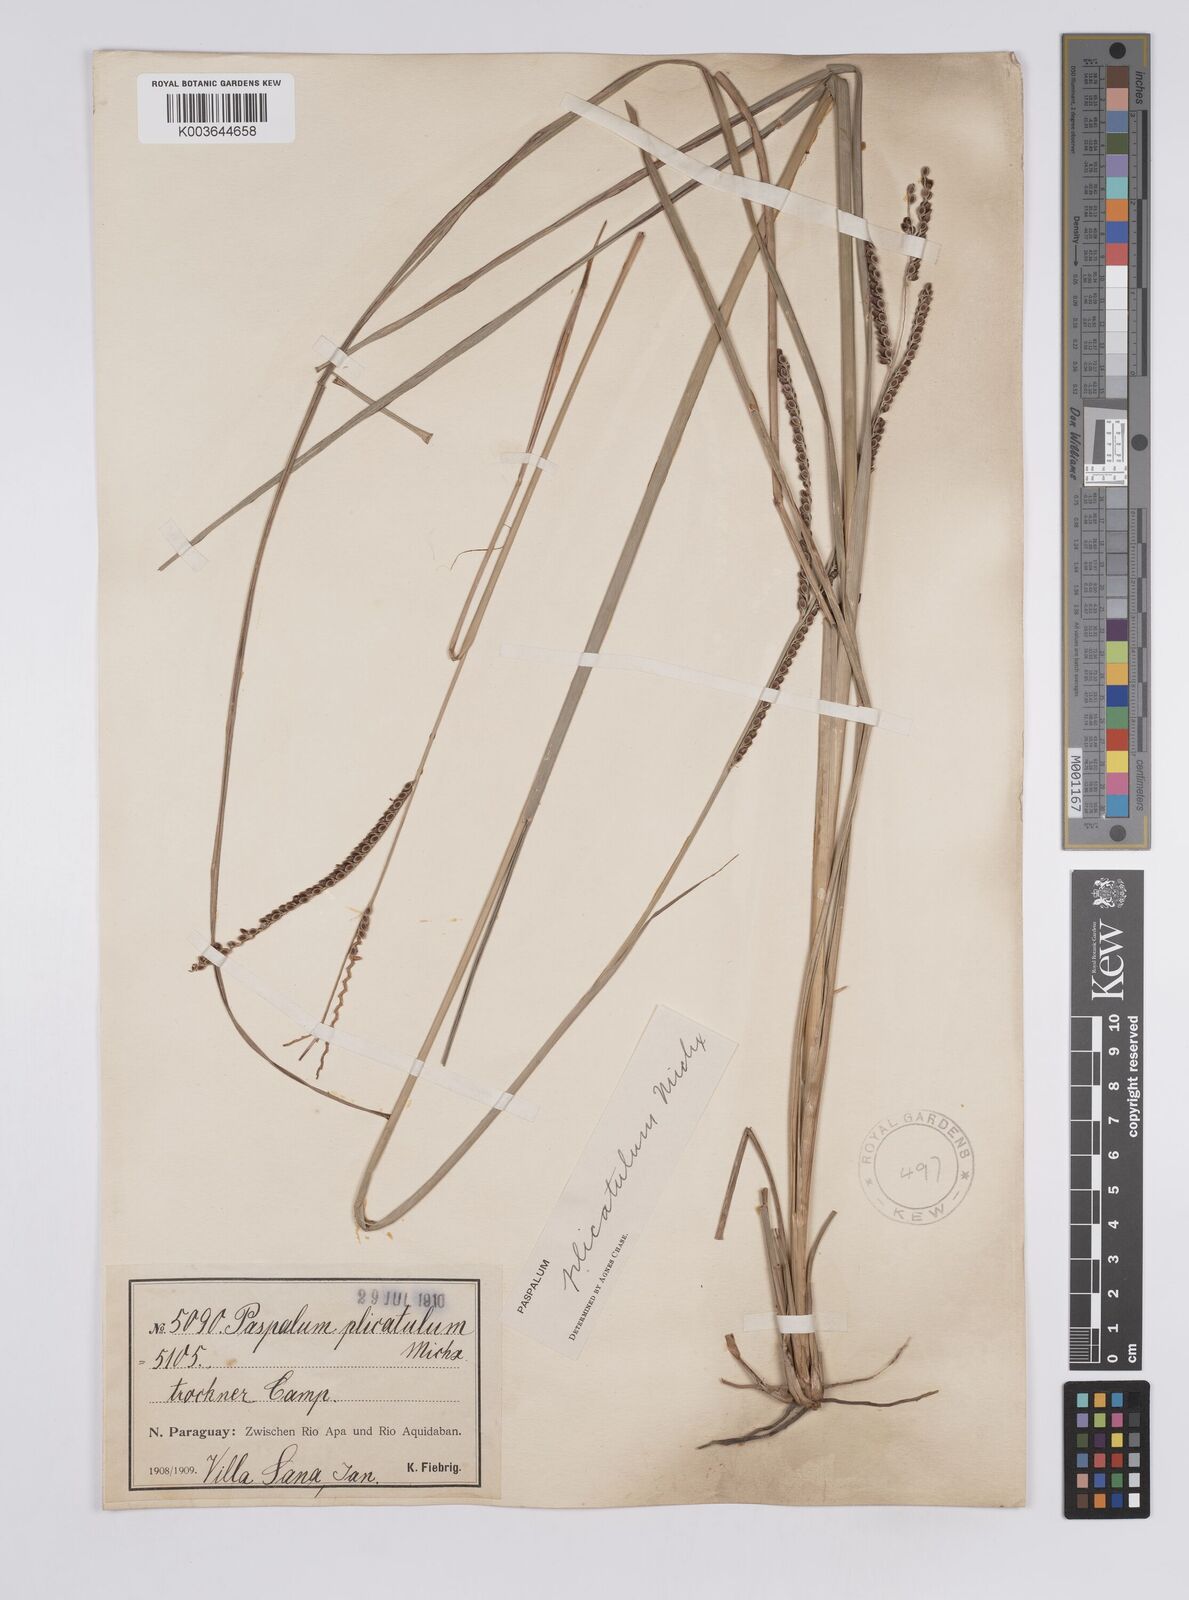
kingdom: Plantae
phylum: Tracheophyta
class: Liliopsida
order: Poales
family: Poaceae
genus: Paspalum
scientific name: Paspalum plicatulum
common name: Top paspalum
